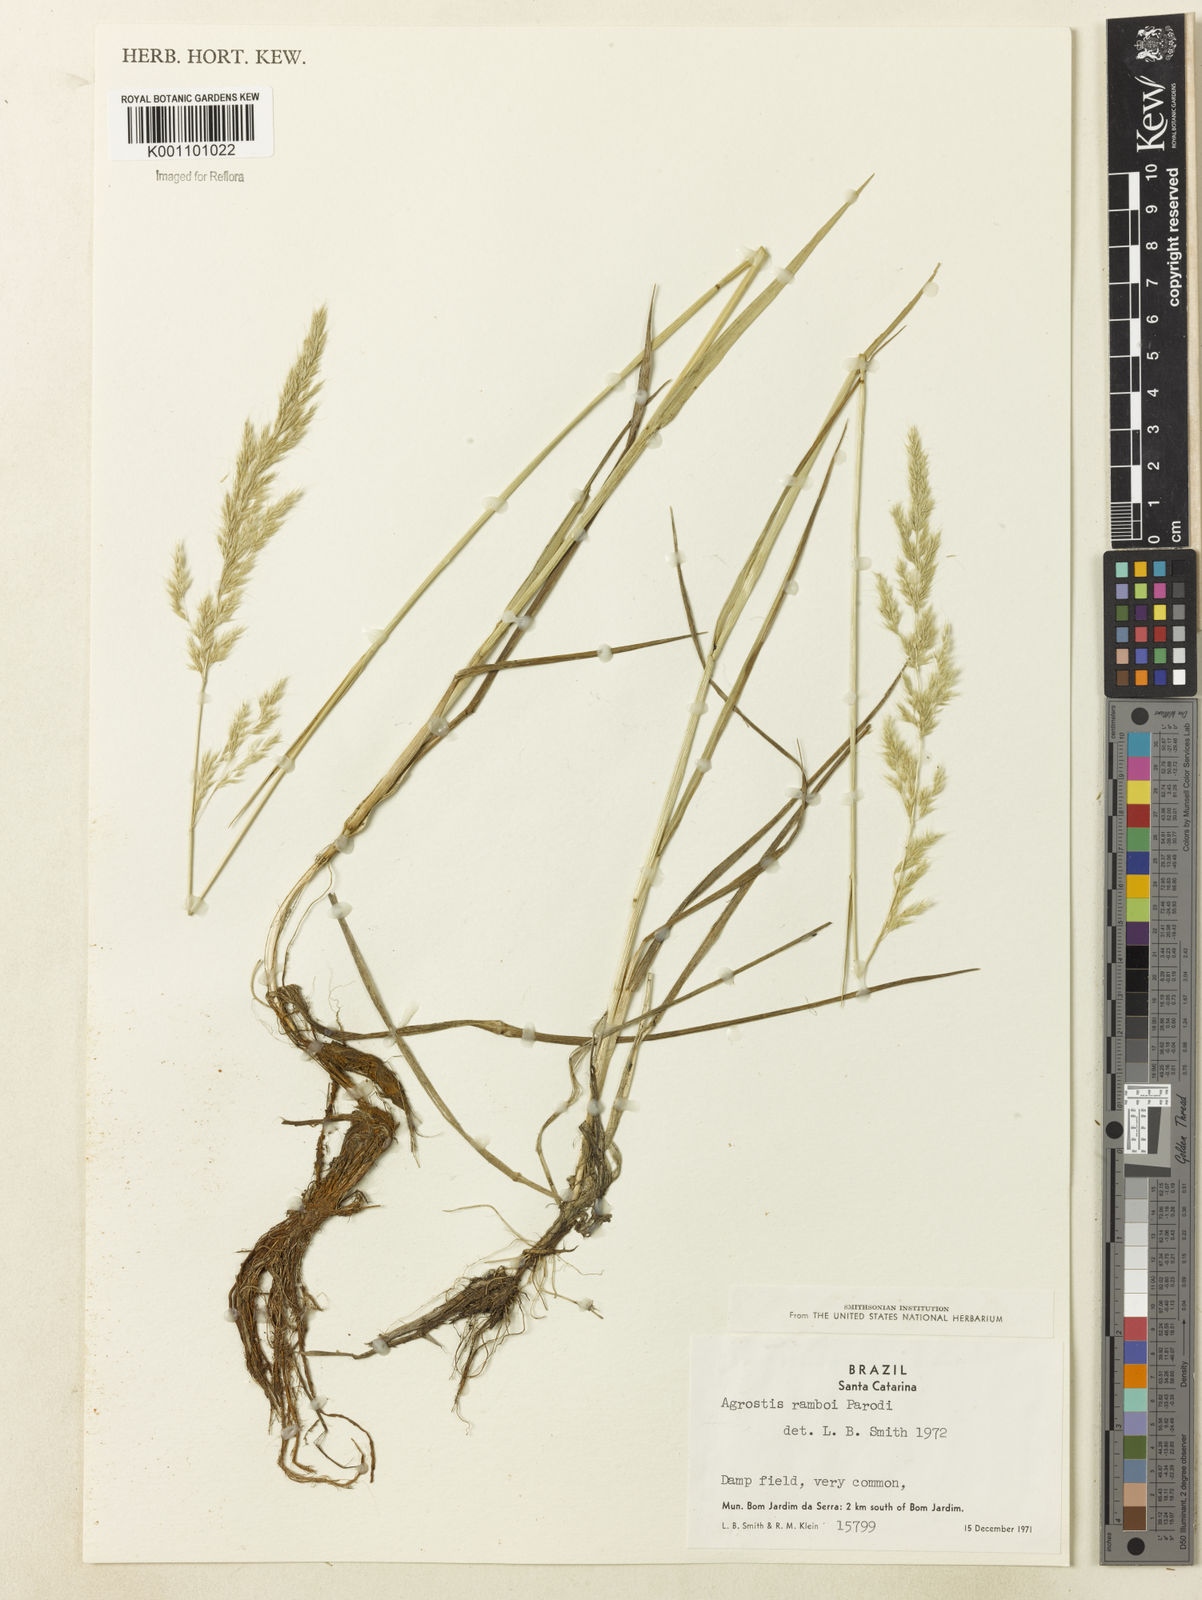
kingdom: Plantae
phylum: Tracheophyta
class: Liliopsida
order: Poales
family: Poaceae
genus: Agrostis
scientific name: Agrostis hygrometrica
